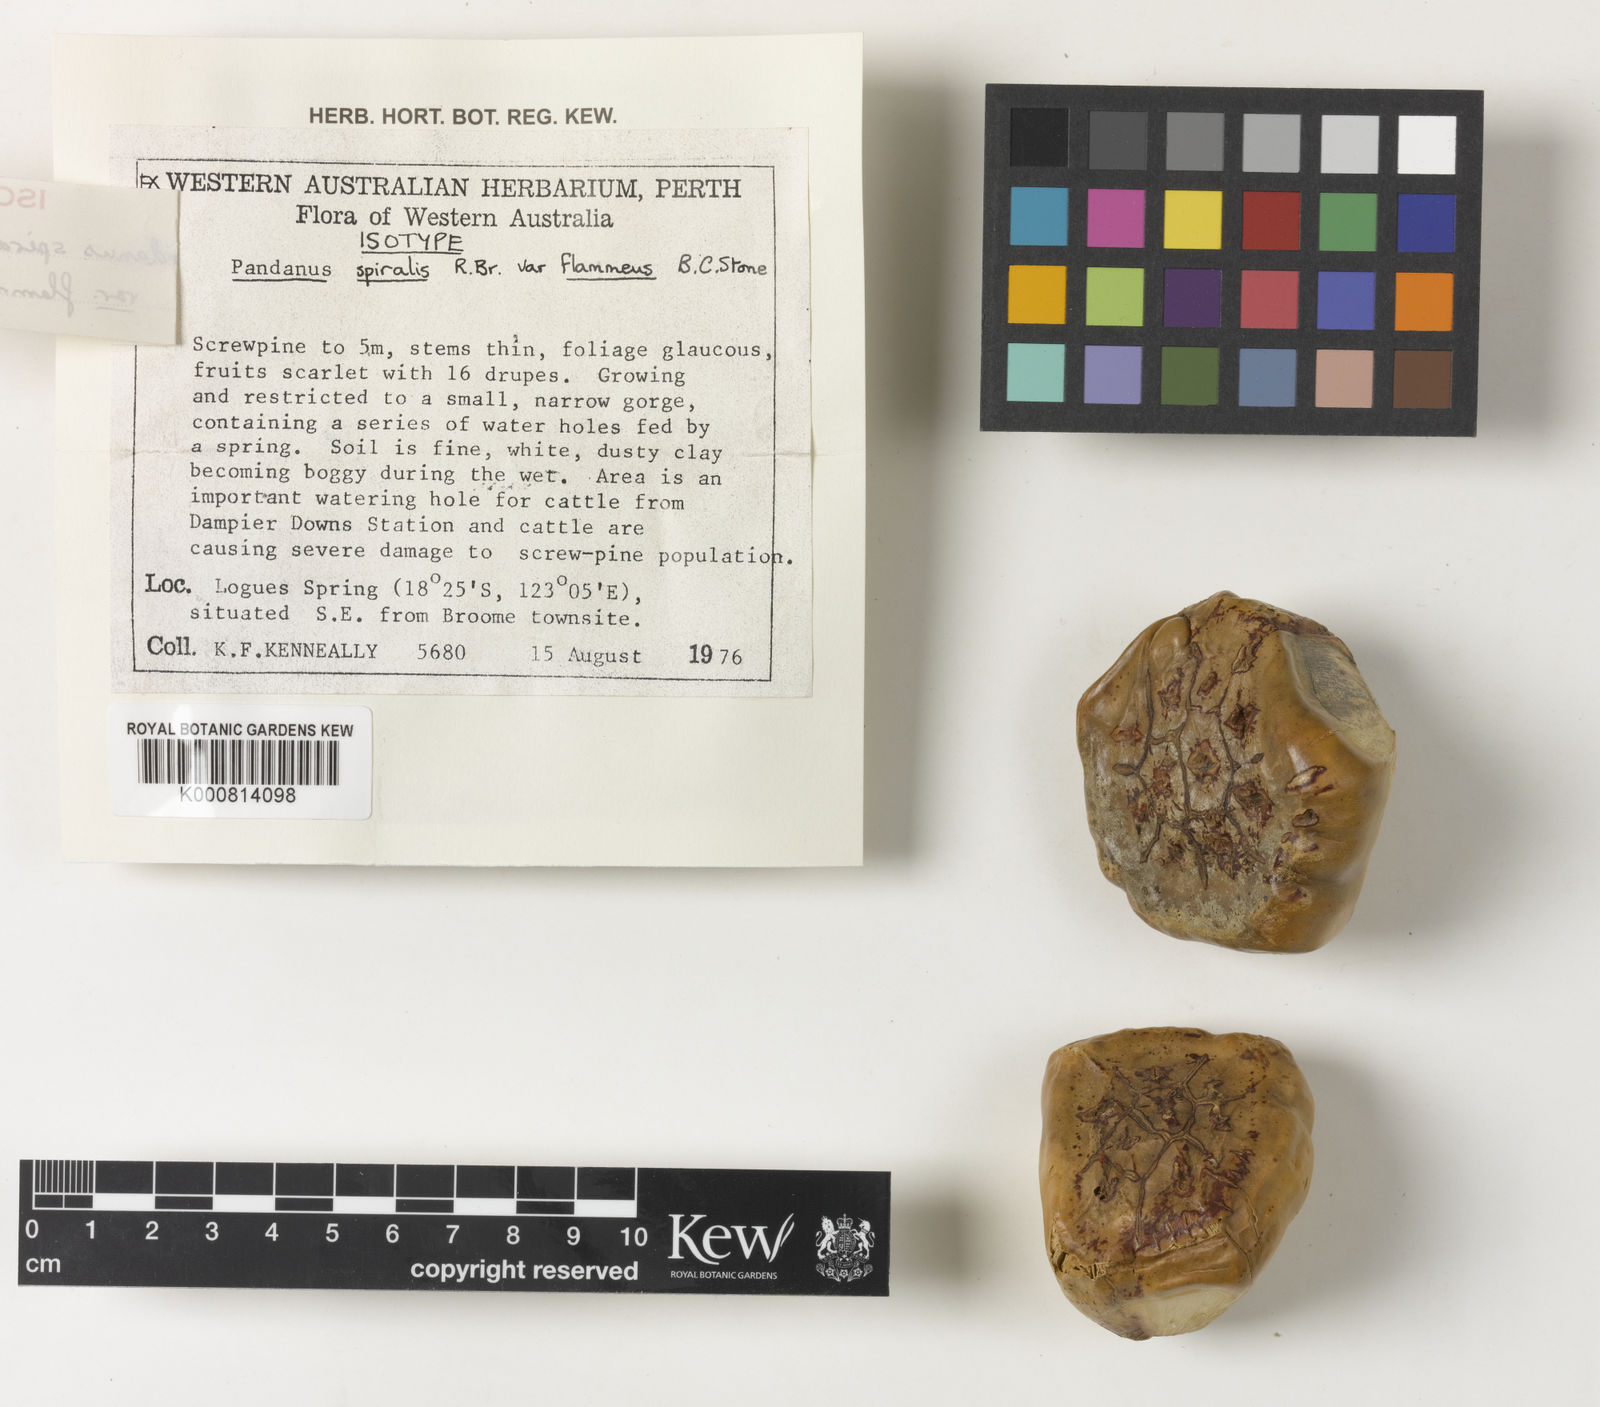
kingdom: Plantae
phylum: Tracheophyta
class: Liliopsida
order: Pandanales
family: Pandanaceae
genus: Pandanus
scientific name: Pandanus spiralis
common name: Screw-pine
